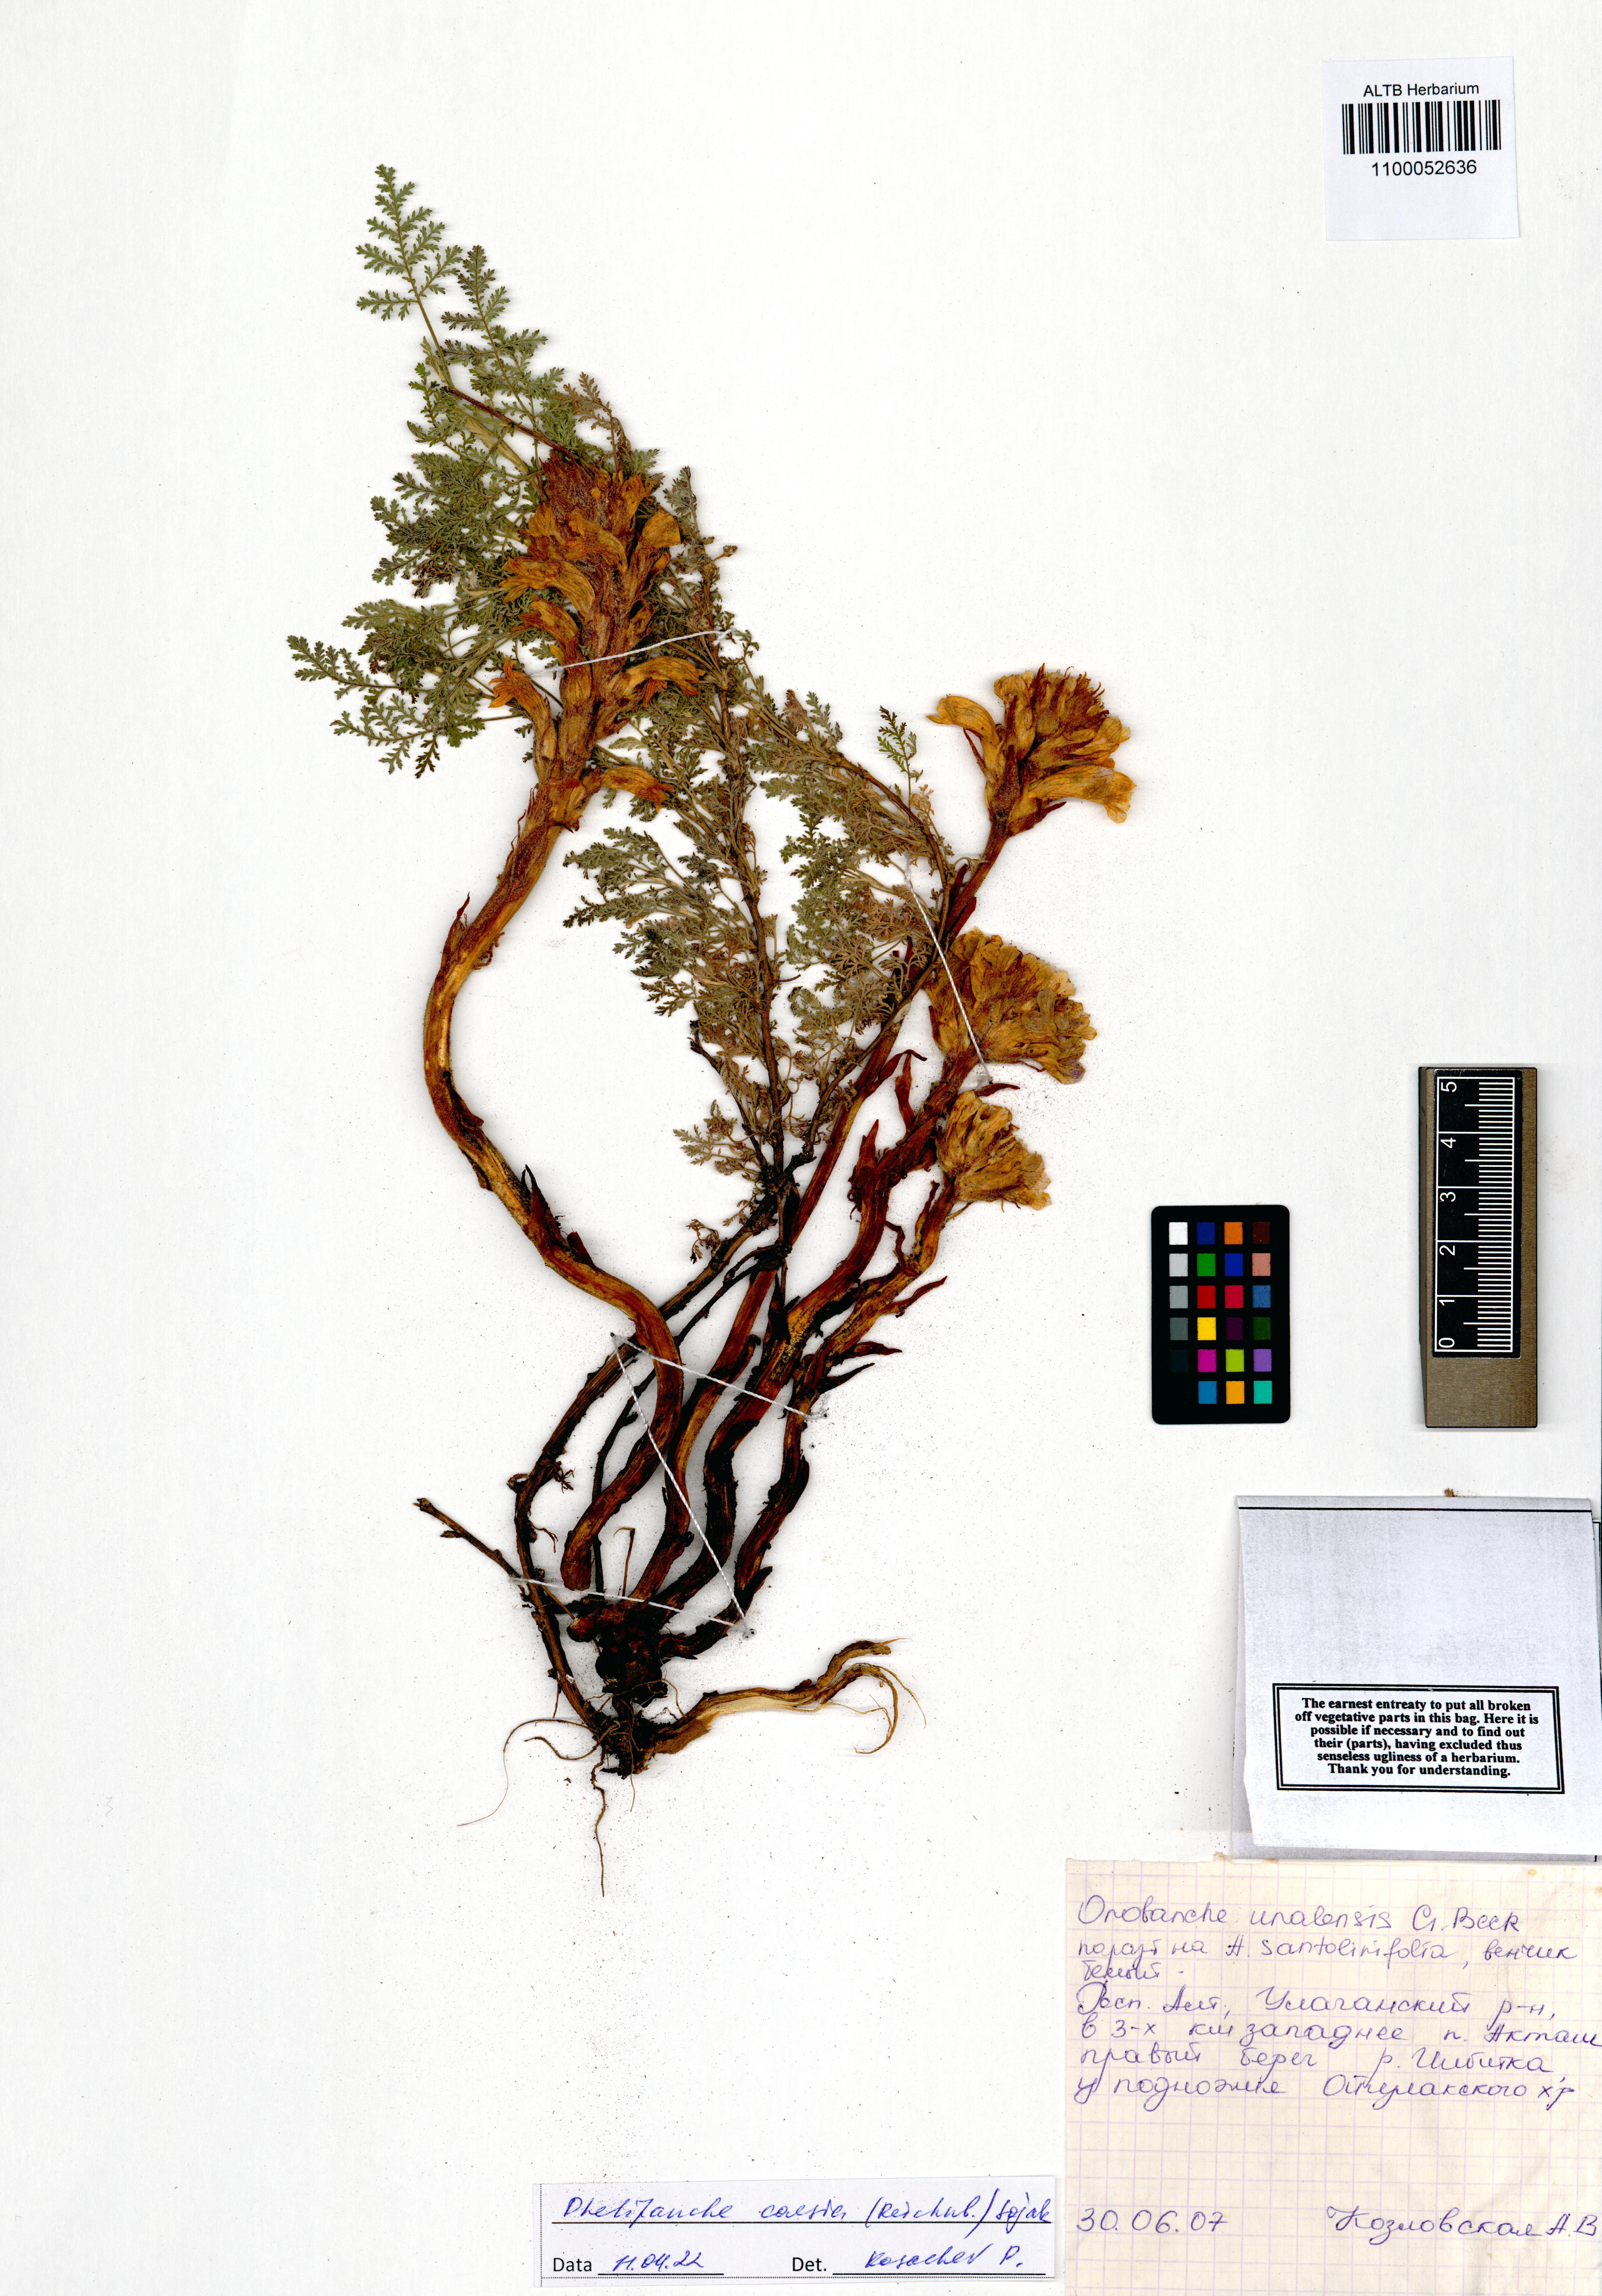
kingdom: Plantae
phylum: Tracheophyta
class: Magnoliopsida
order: Lamiales
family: Orobanchaceae
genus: Phelipanche
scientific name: Phelipanche caesia
